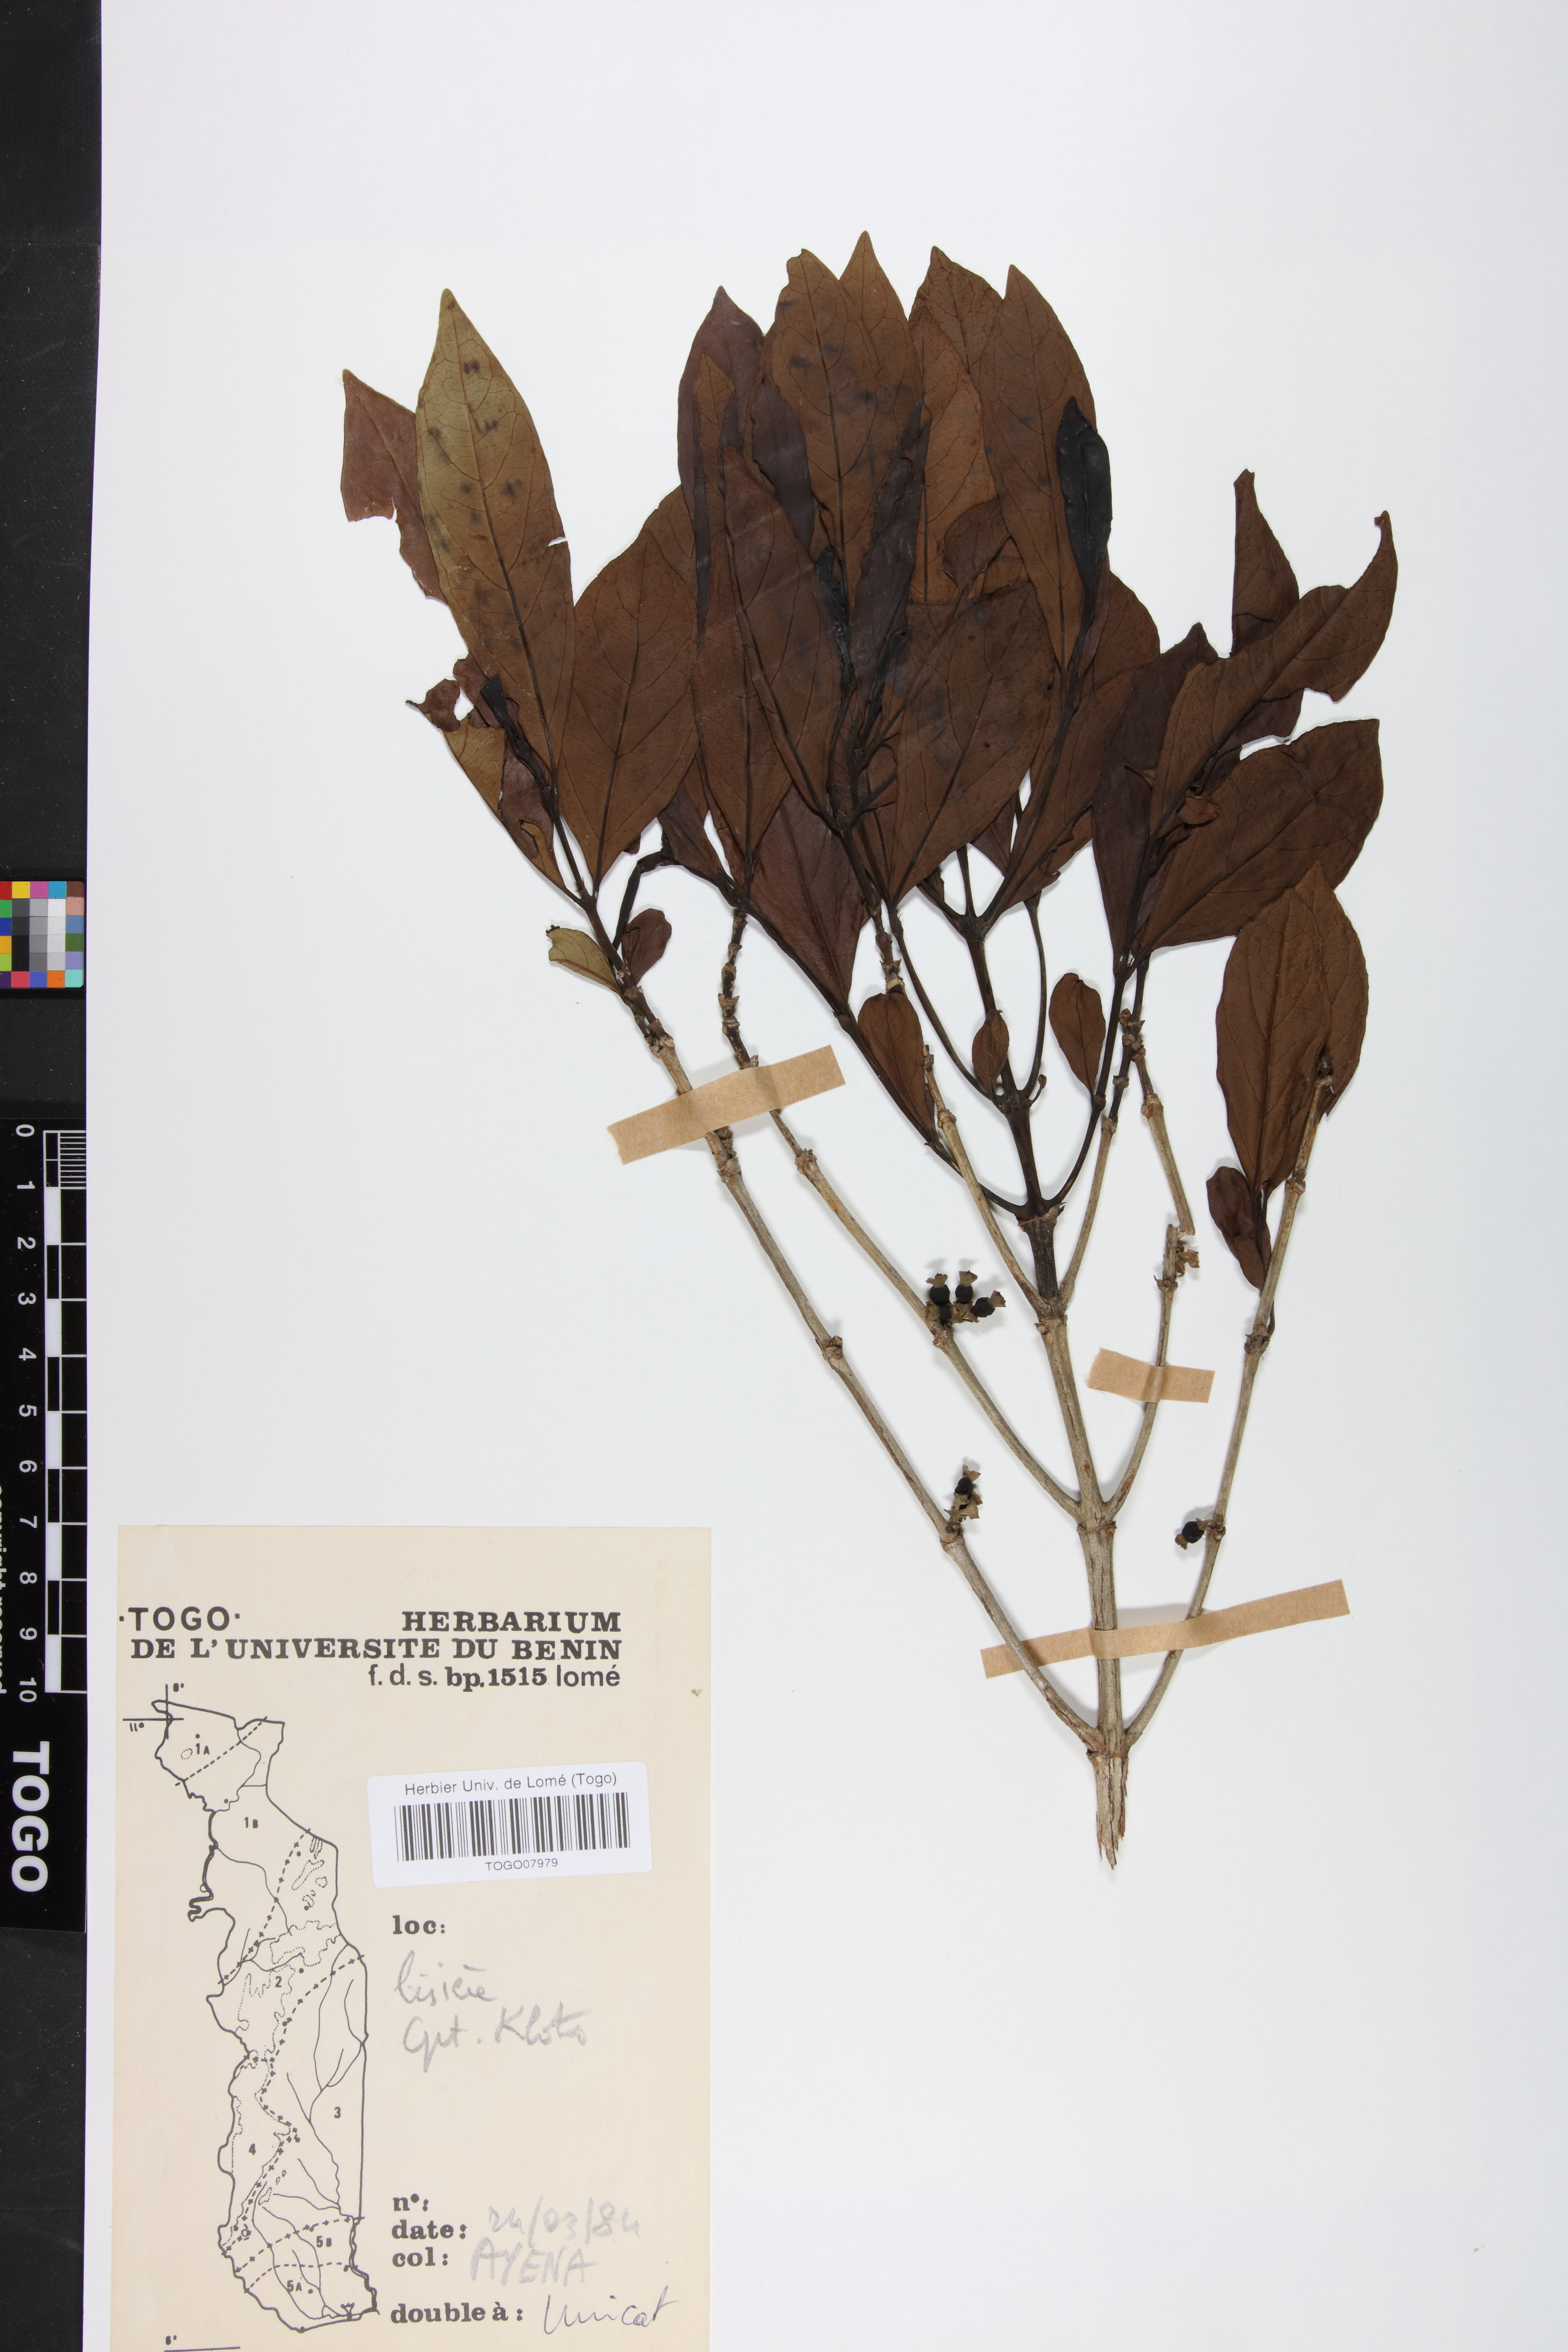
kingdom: Plantae
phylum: Tracheophyta
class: Magnoliopsida
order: Gentianales
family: Rubiaceae
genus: Tricalysia
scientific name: Tricalysia okelensis
